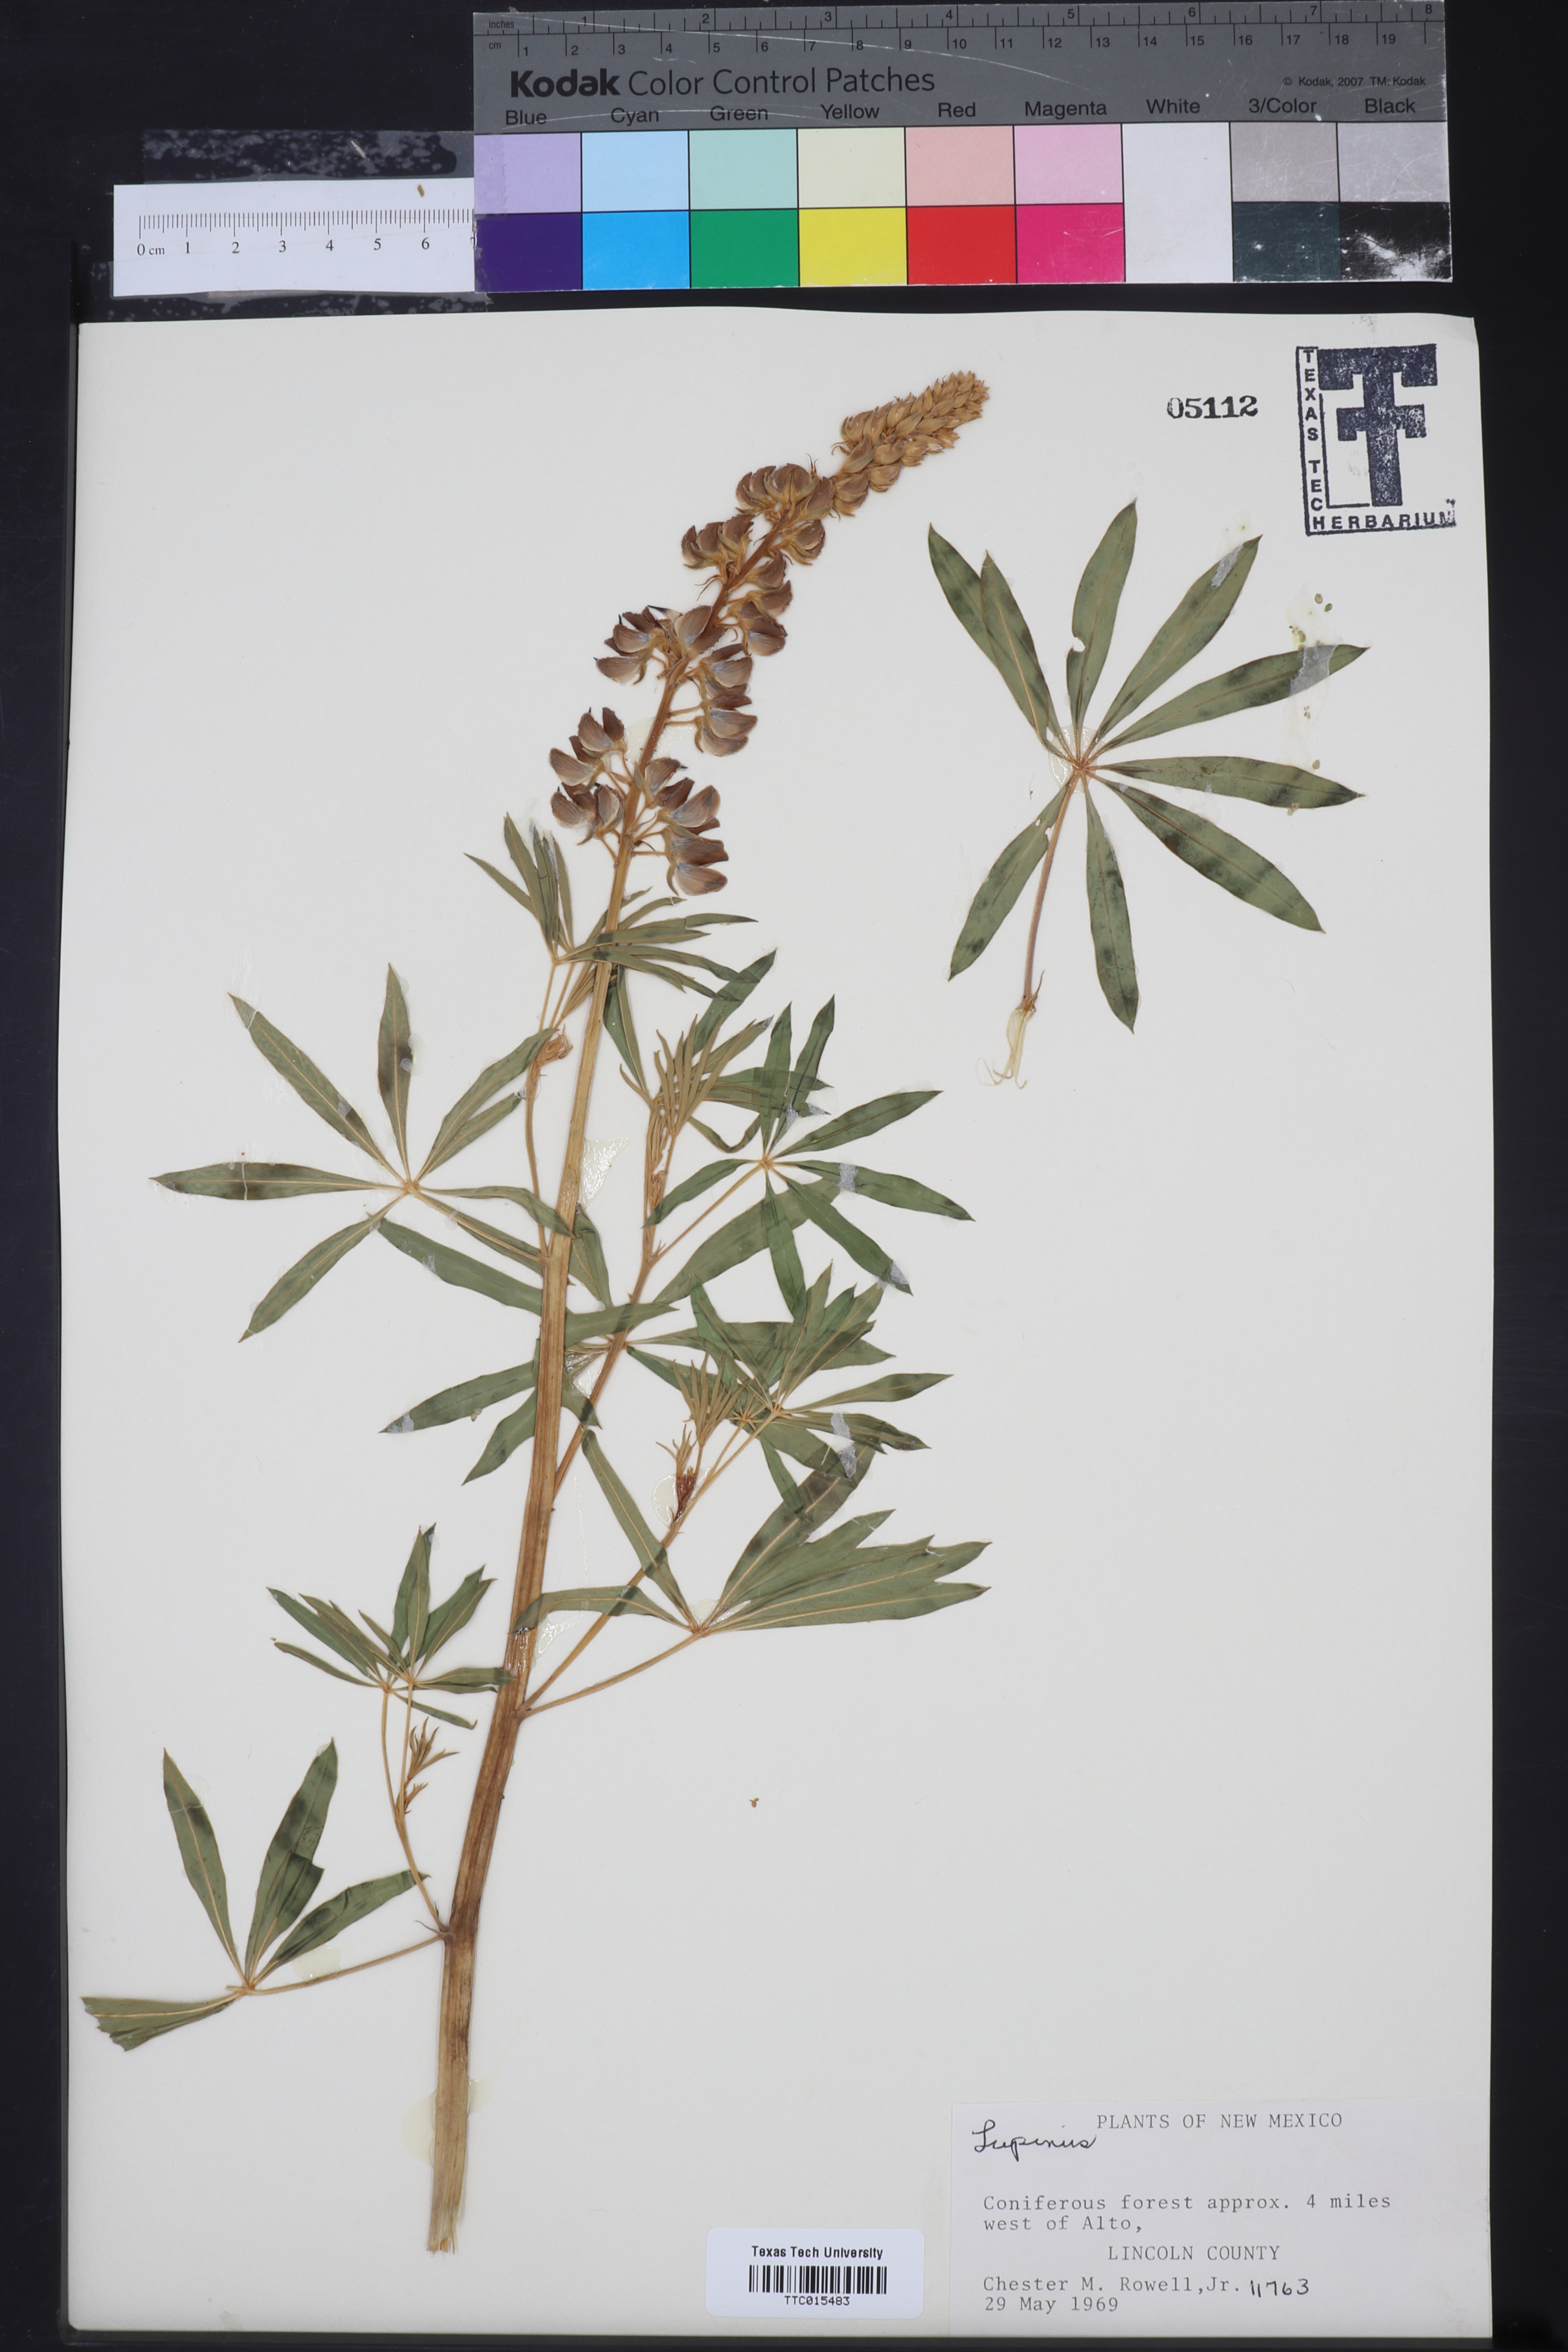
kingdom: Plantae
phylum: Tracheophyta
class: Magnoliopsida
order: Fabales
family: Fabaceae
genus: Lupinus
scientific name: Lupinus
